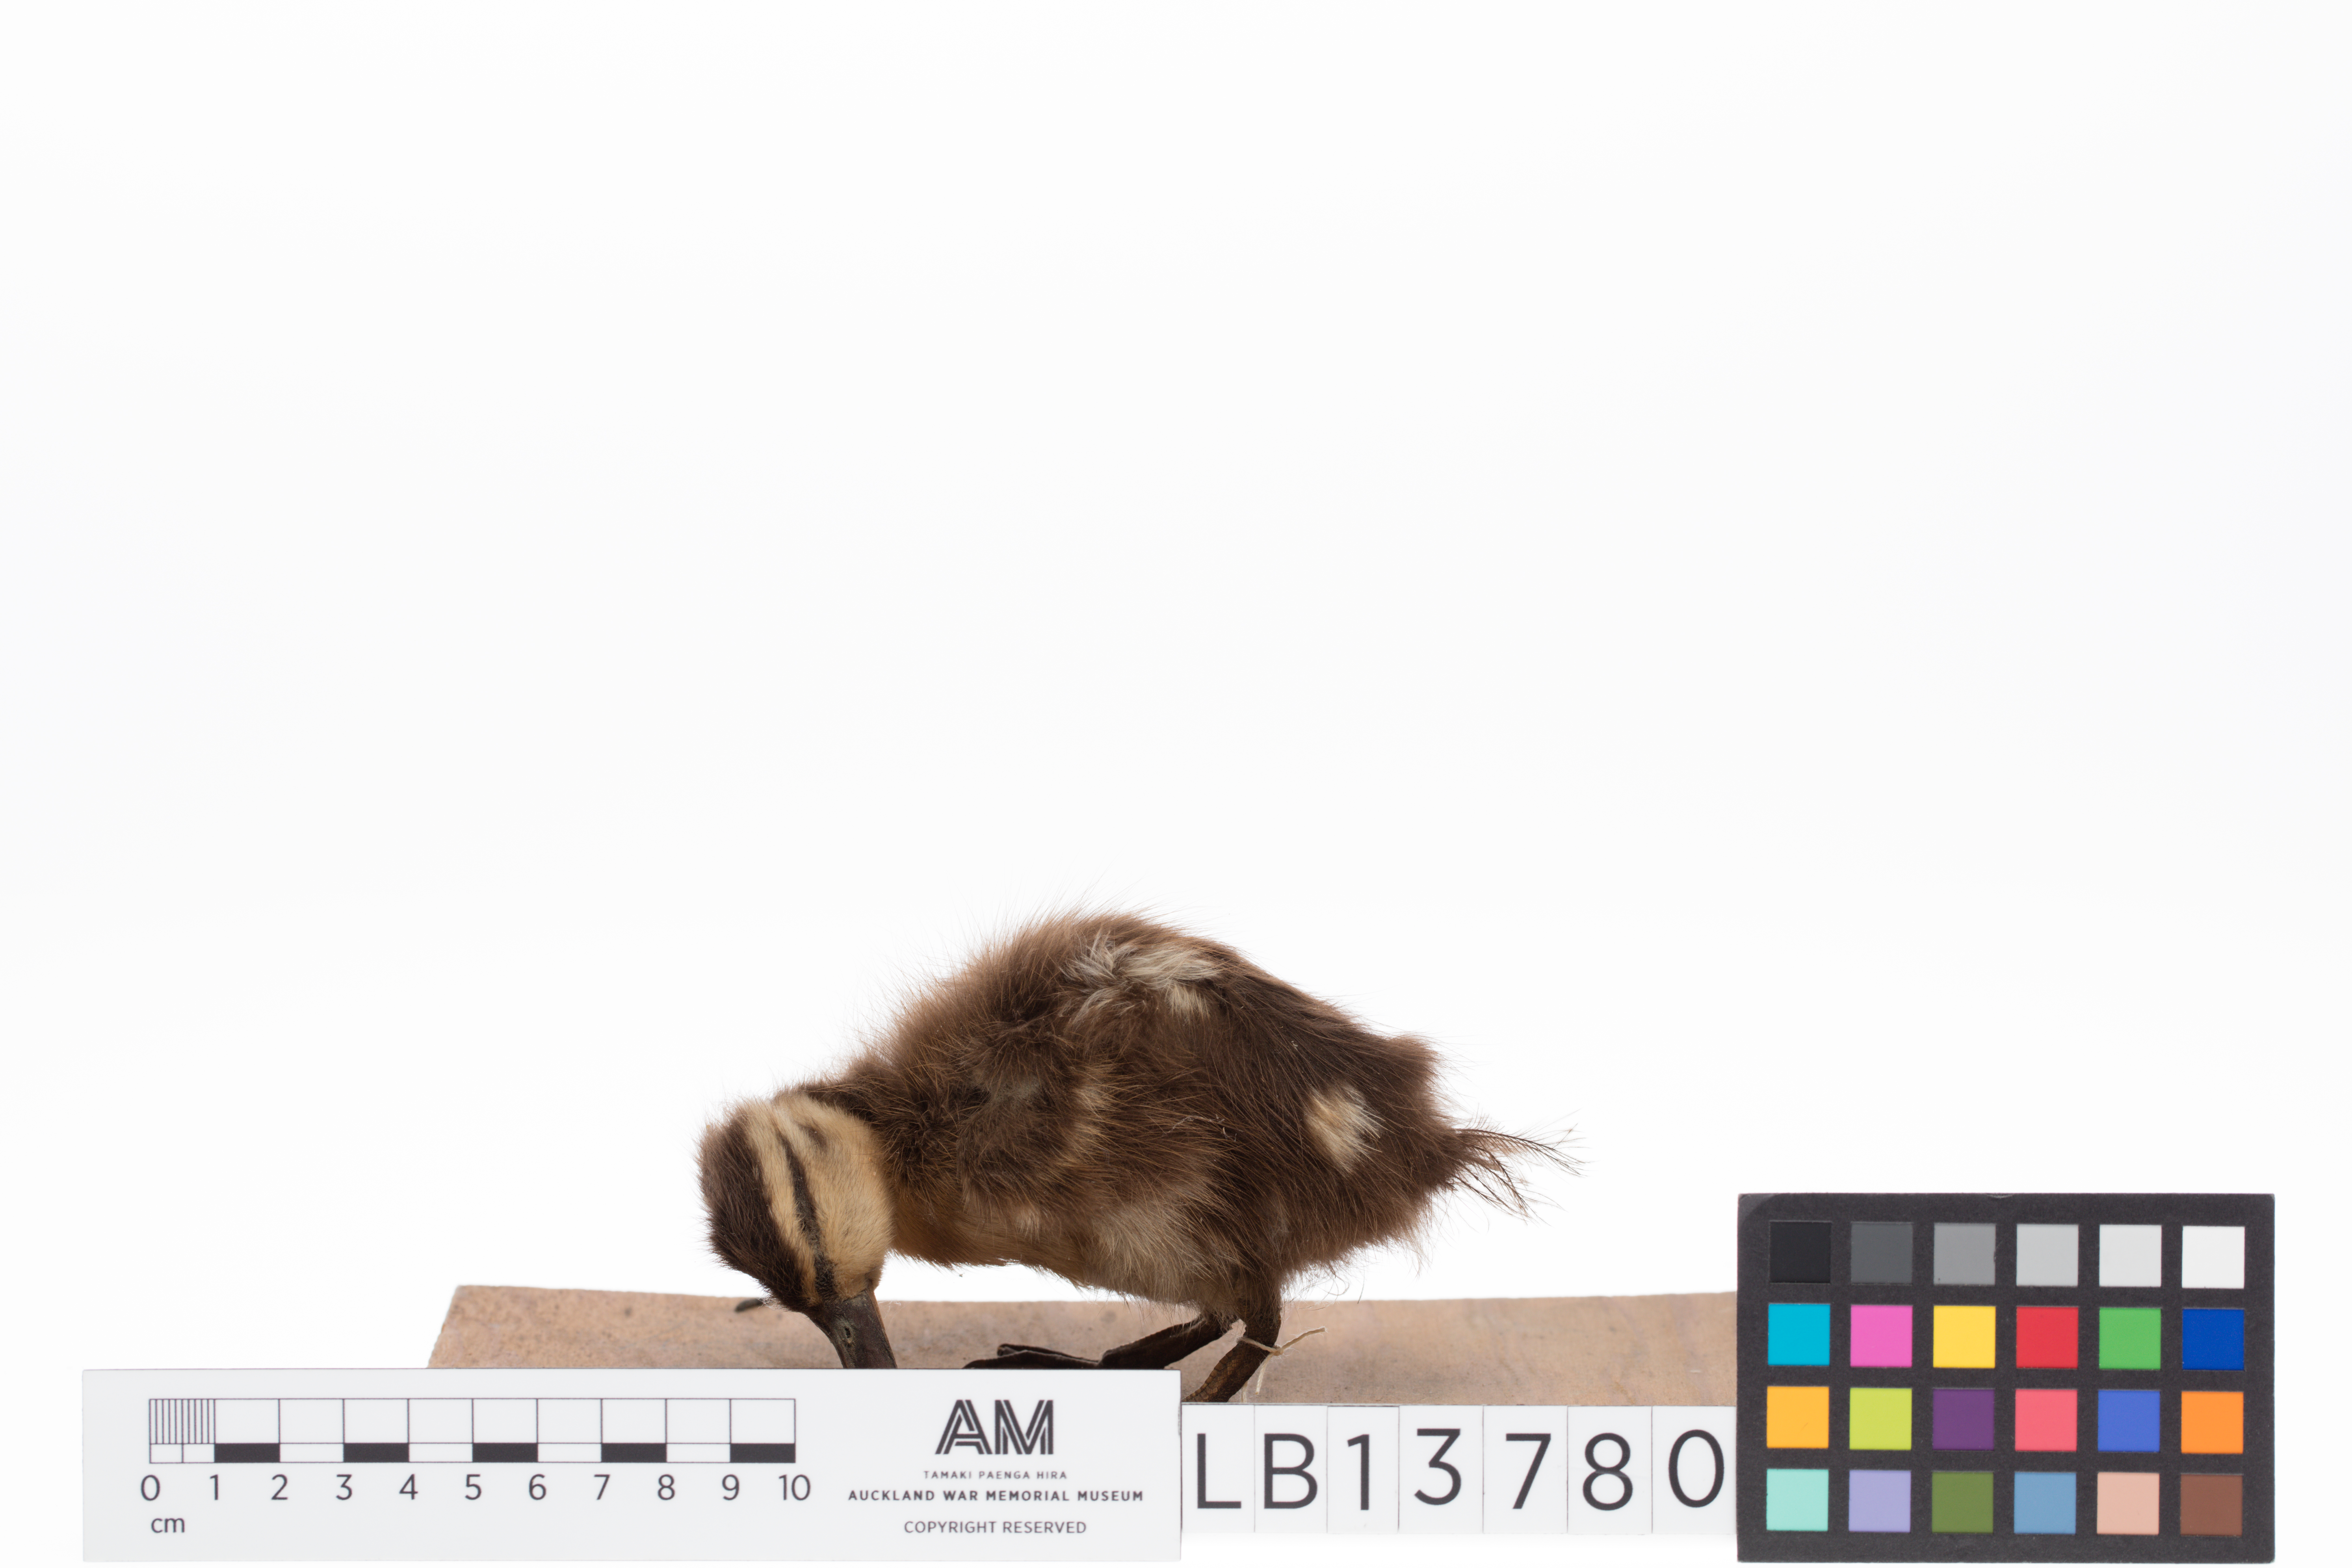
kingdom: Animalia
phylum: Chordata
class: Aves
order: Anseriformes
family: Anatidae
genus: Spatula
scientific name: Spatula rhynchotis
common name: Australian shoveler
